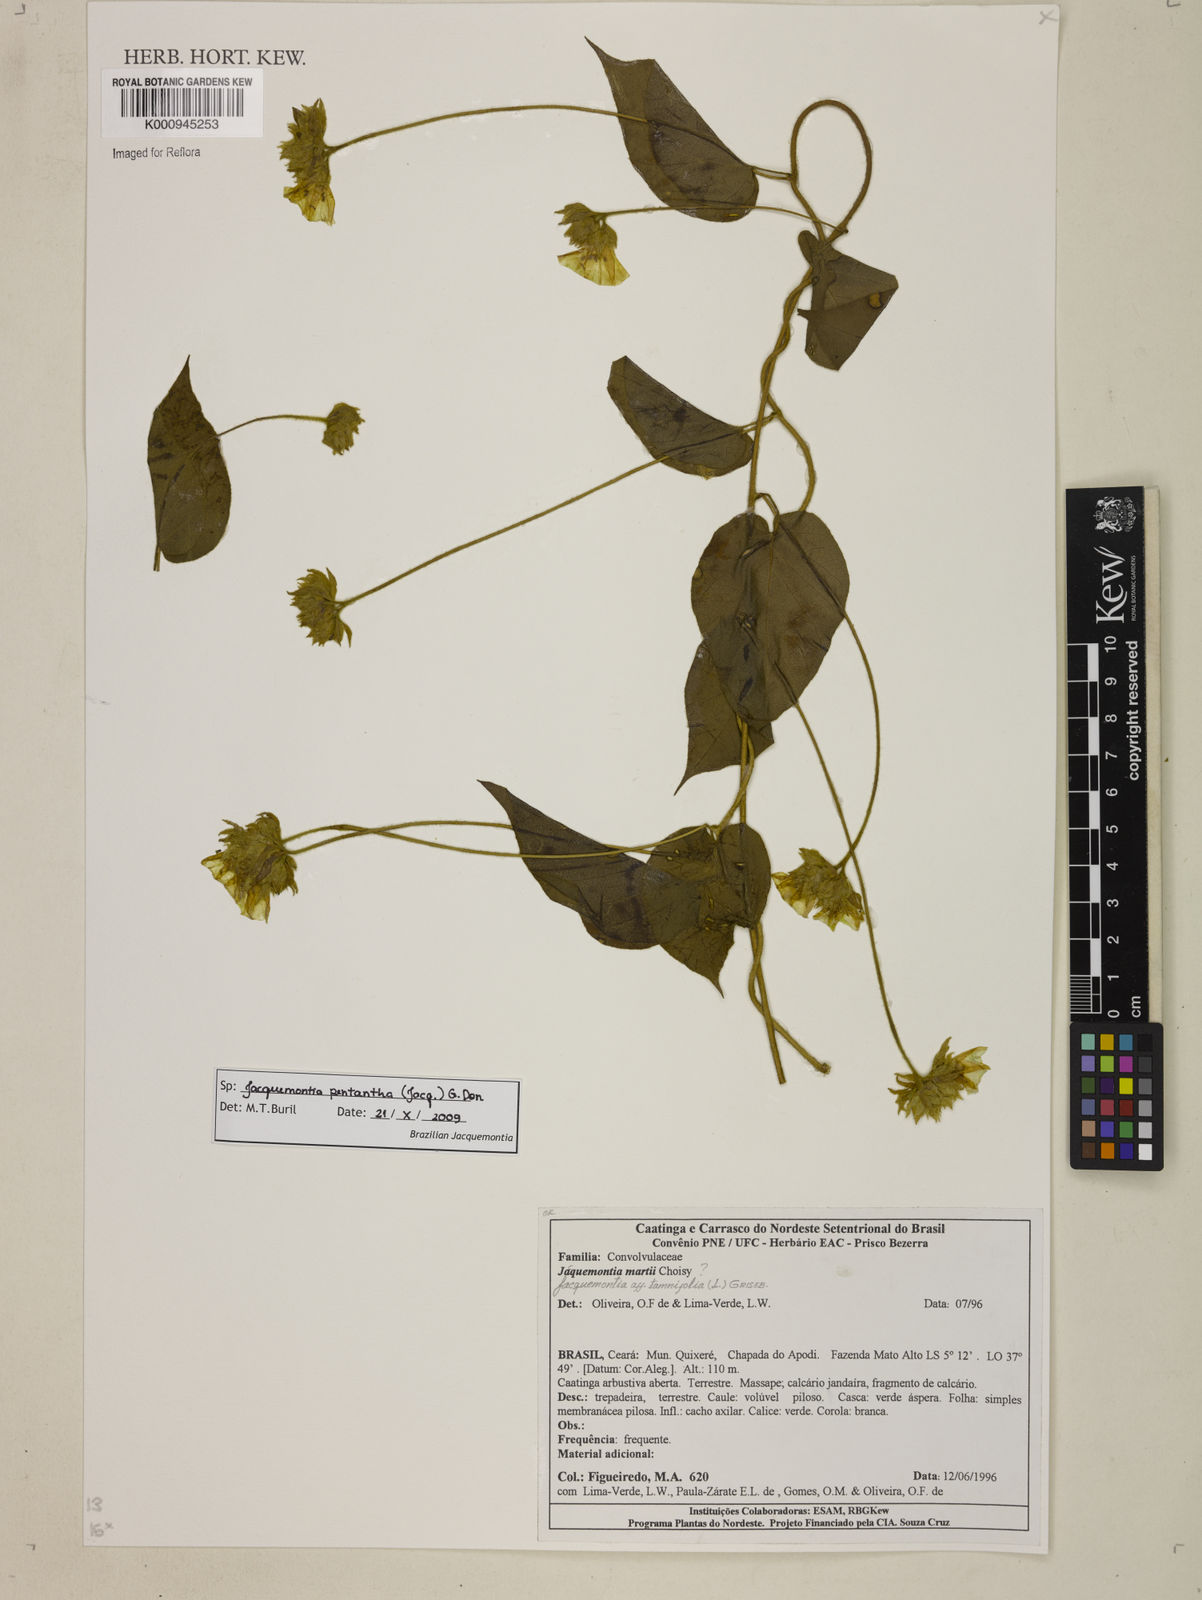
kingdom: Plantae
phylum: Tracheophyta
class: Magnoliopsida
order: Solanales
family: Convolvulaceae
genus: Jacquemontia
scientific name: Jacquemontia
